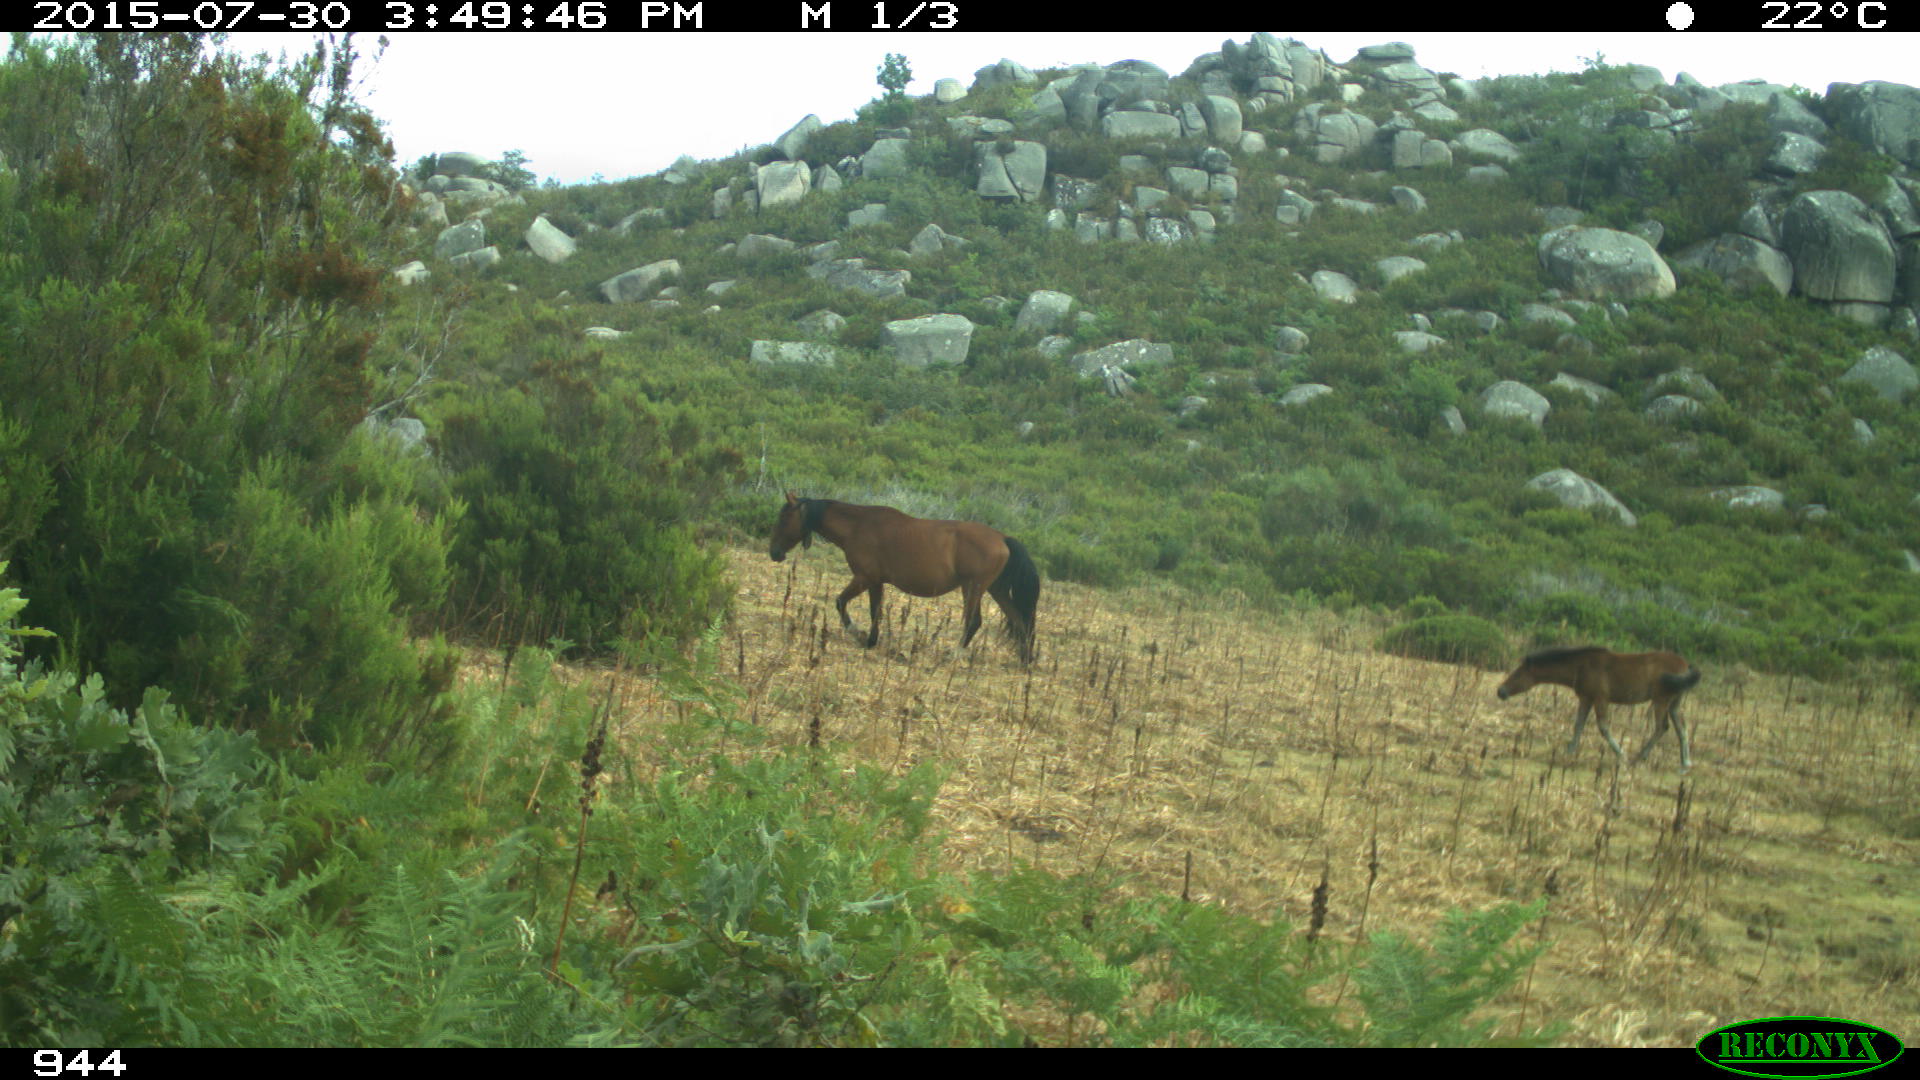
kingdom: Animalia
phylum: Chordata
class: Mammalia
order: Perissodactyla
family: Equidae
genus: Equus
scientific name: Equus caballus
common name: Horse
